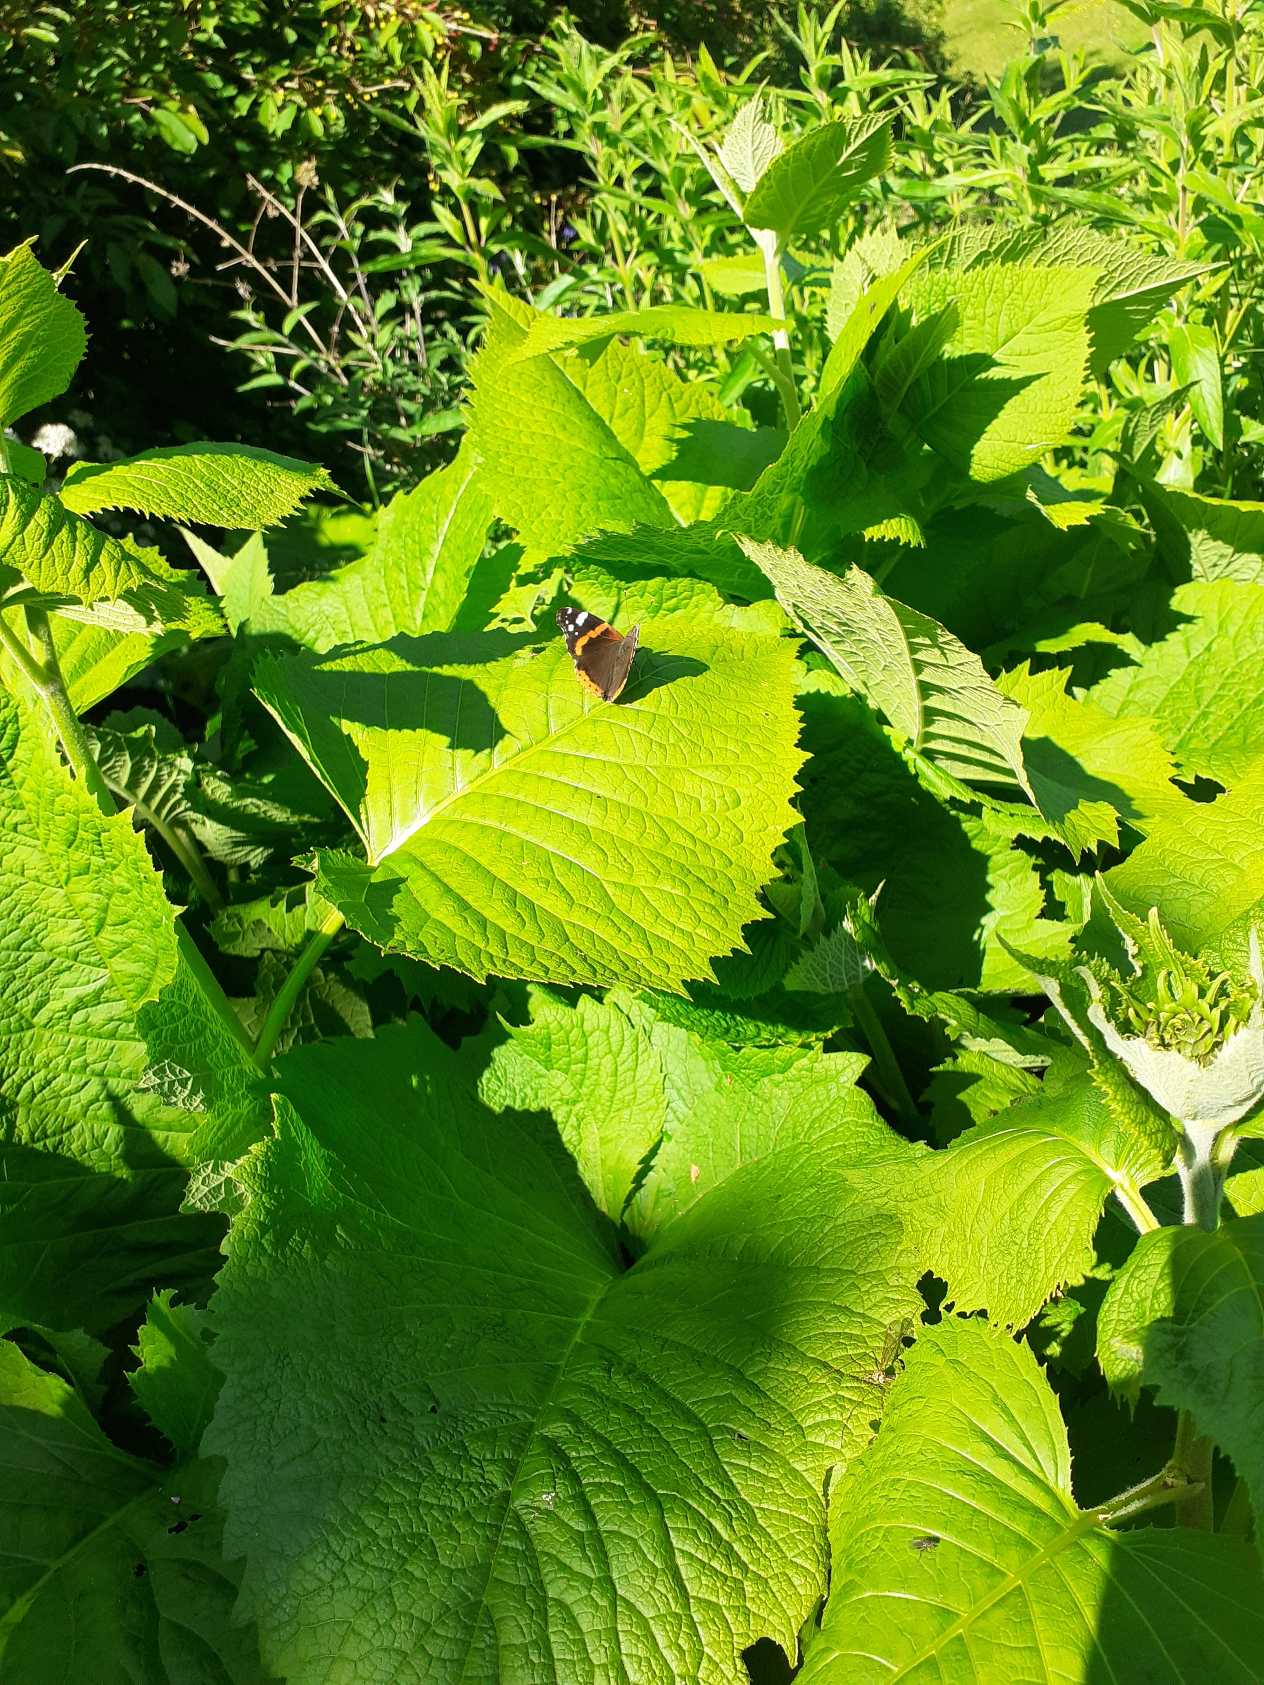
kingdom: Animalia
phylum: Arthropoda
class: Insecta
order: Lepidoptera
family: Nymphalidae
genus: Vanessa
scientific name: Vanessa atalanta
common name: Admiral
